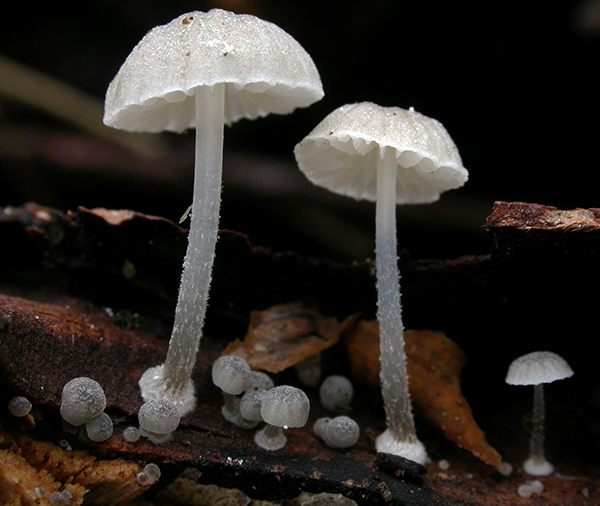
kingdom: Fungi
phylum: Basidiomycota
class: Agaricomycetes
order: Agaricales
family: Mycenaceae
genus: Mycena
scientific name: Mycena clavularis
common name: dunskivet huesvamp
